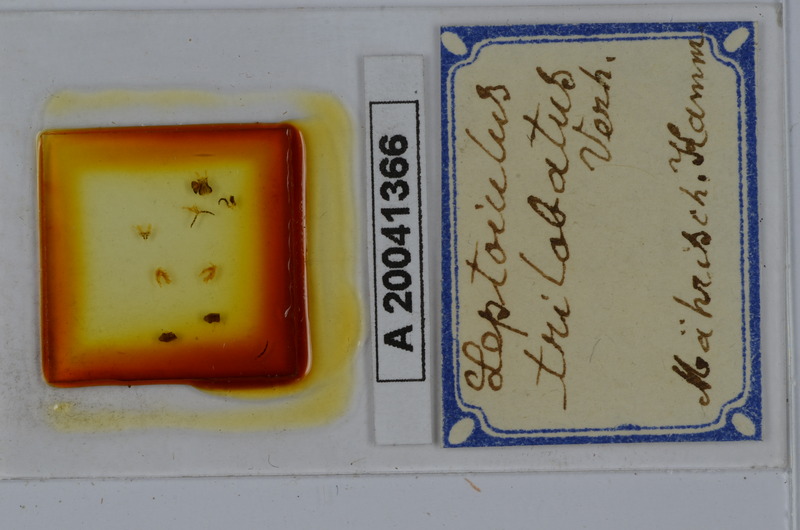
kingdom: Animalia
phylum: Arthropoda
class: Diplopoda
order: Julida
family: Julidae
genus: Leptoiulus
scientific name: Leptoiulus trilobatus
